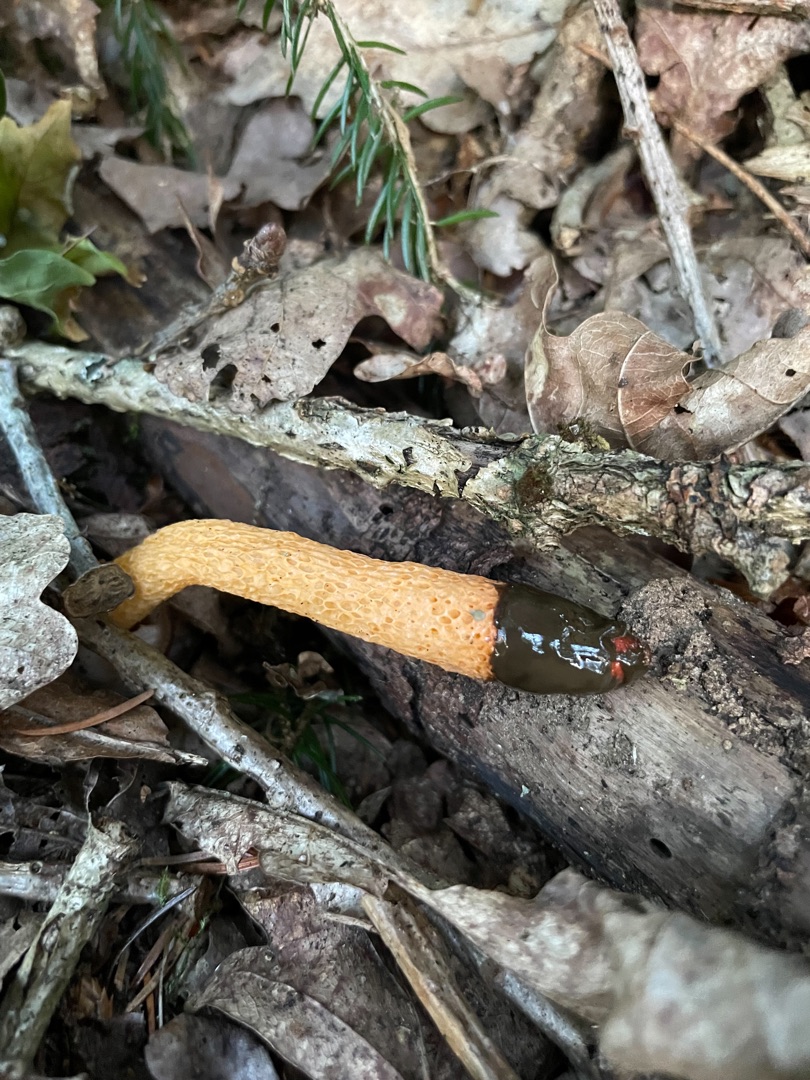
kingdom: Fungi
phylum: Basidiomycota
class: Agaricomycetes
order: Phallales
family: Phallaceae
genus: Mutinus
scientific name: Mutinus caninus
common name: Hunde-stinksvamp
